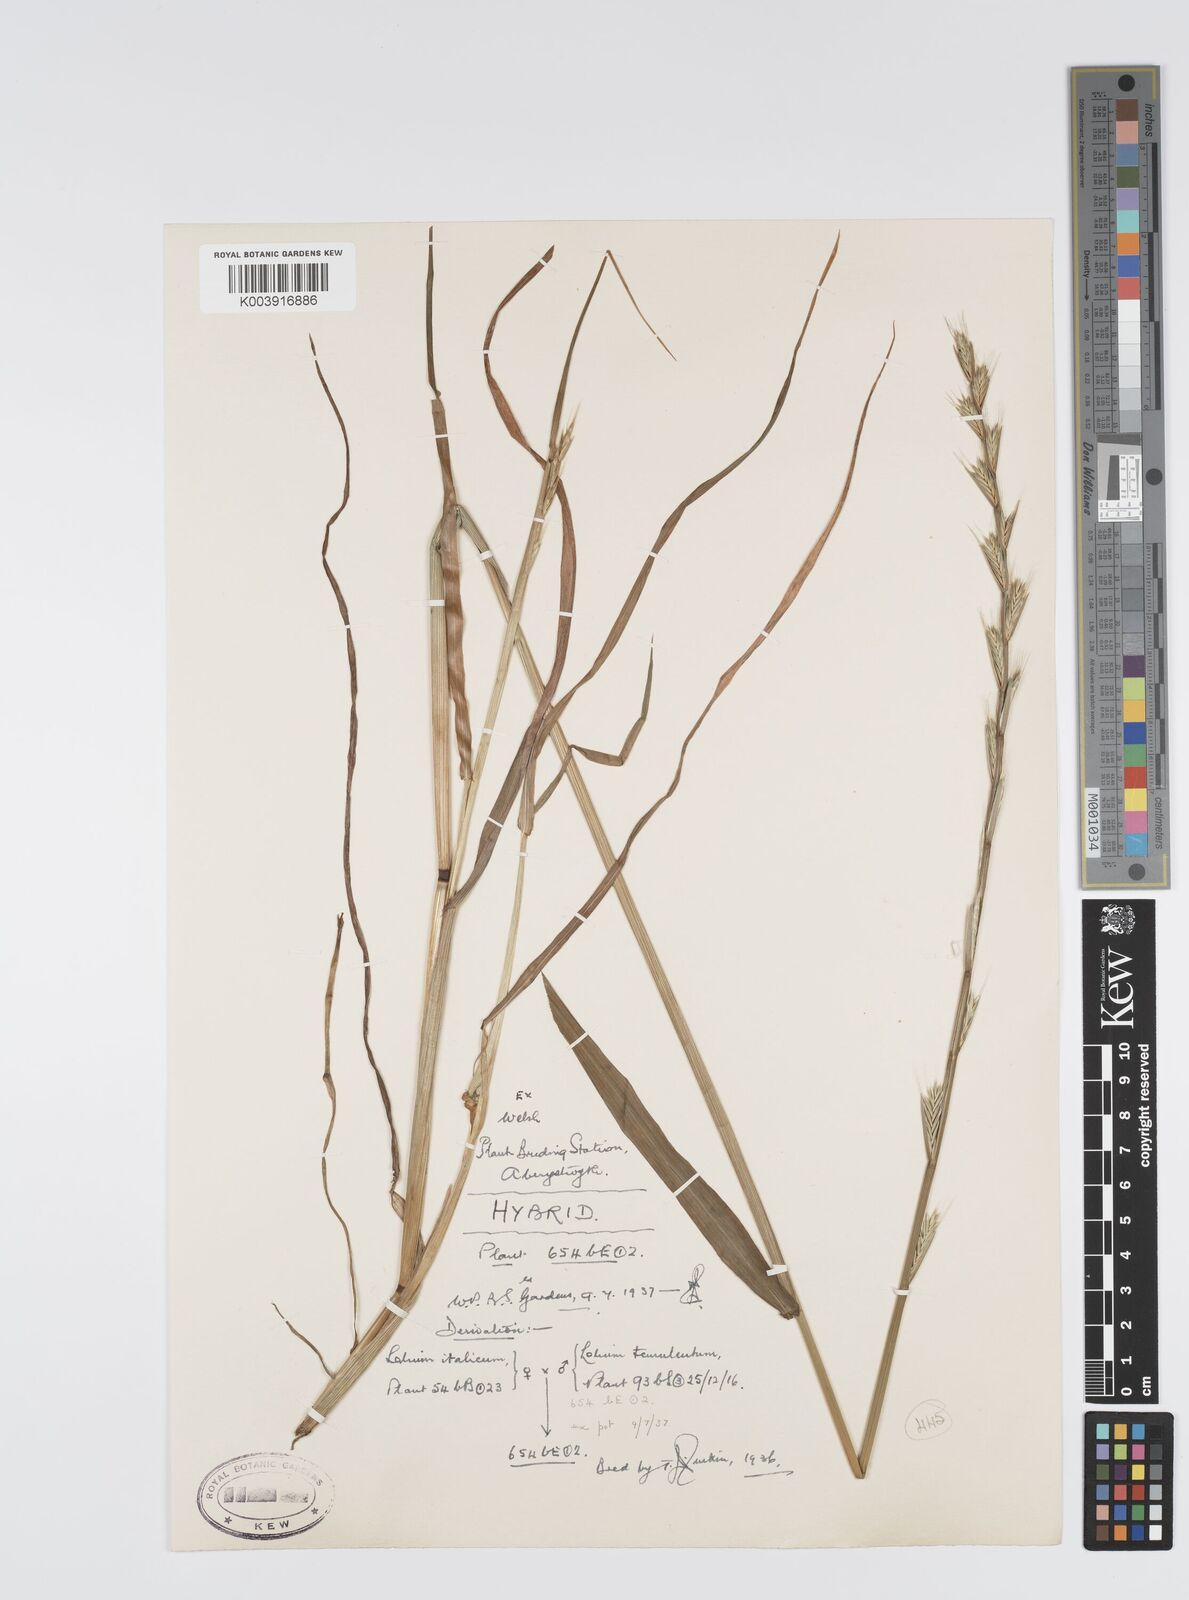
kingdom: Plantae
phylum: Tracheophyta
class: Liliopsida
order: Poales
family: Poaceae
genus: Lolium
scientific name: Lolium multiflorum
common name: Annual ryegrass
